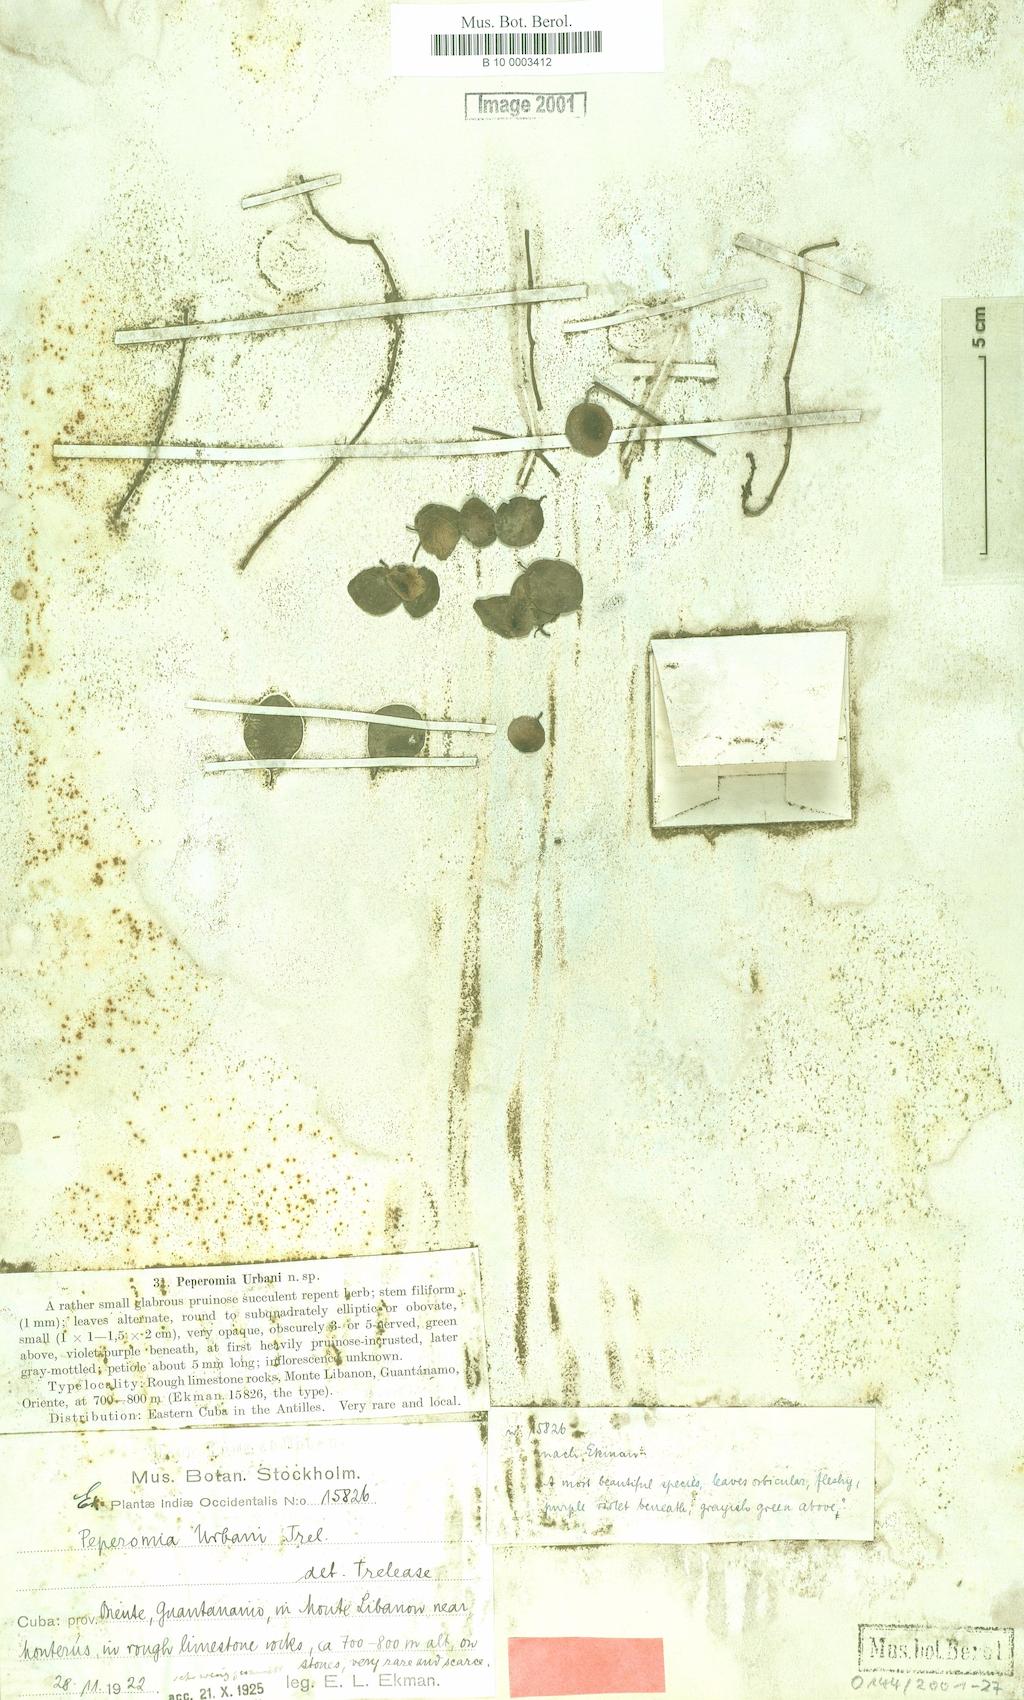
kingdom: Plantae
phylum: Tracheophyta
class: Magnoliopsida
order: Piperales
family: Piperaceae
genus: Peperomia
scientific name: Peperomia urbanii
